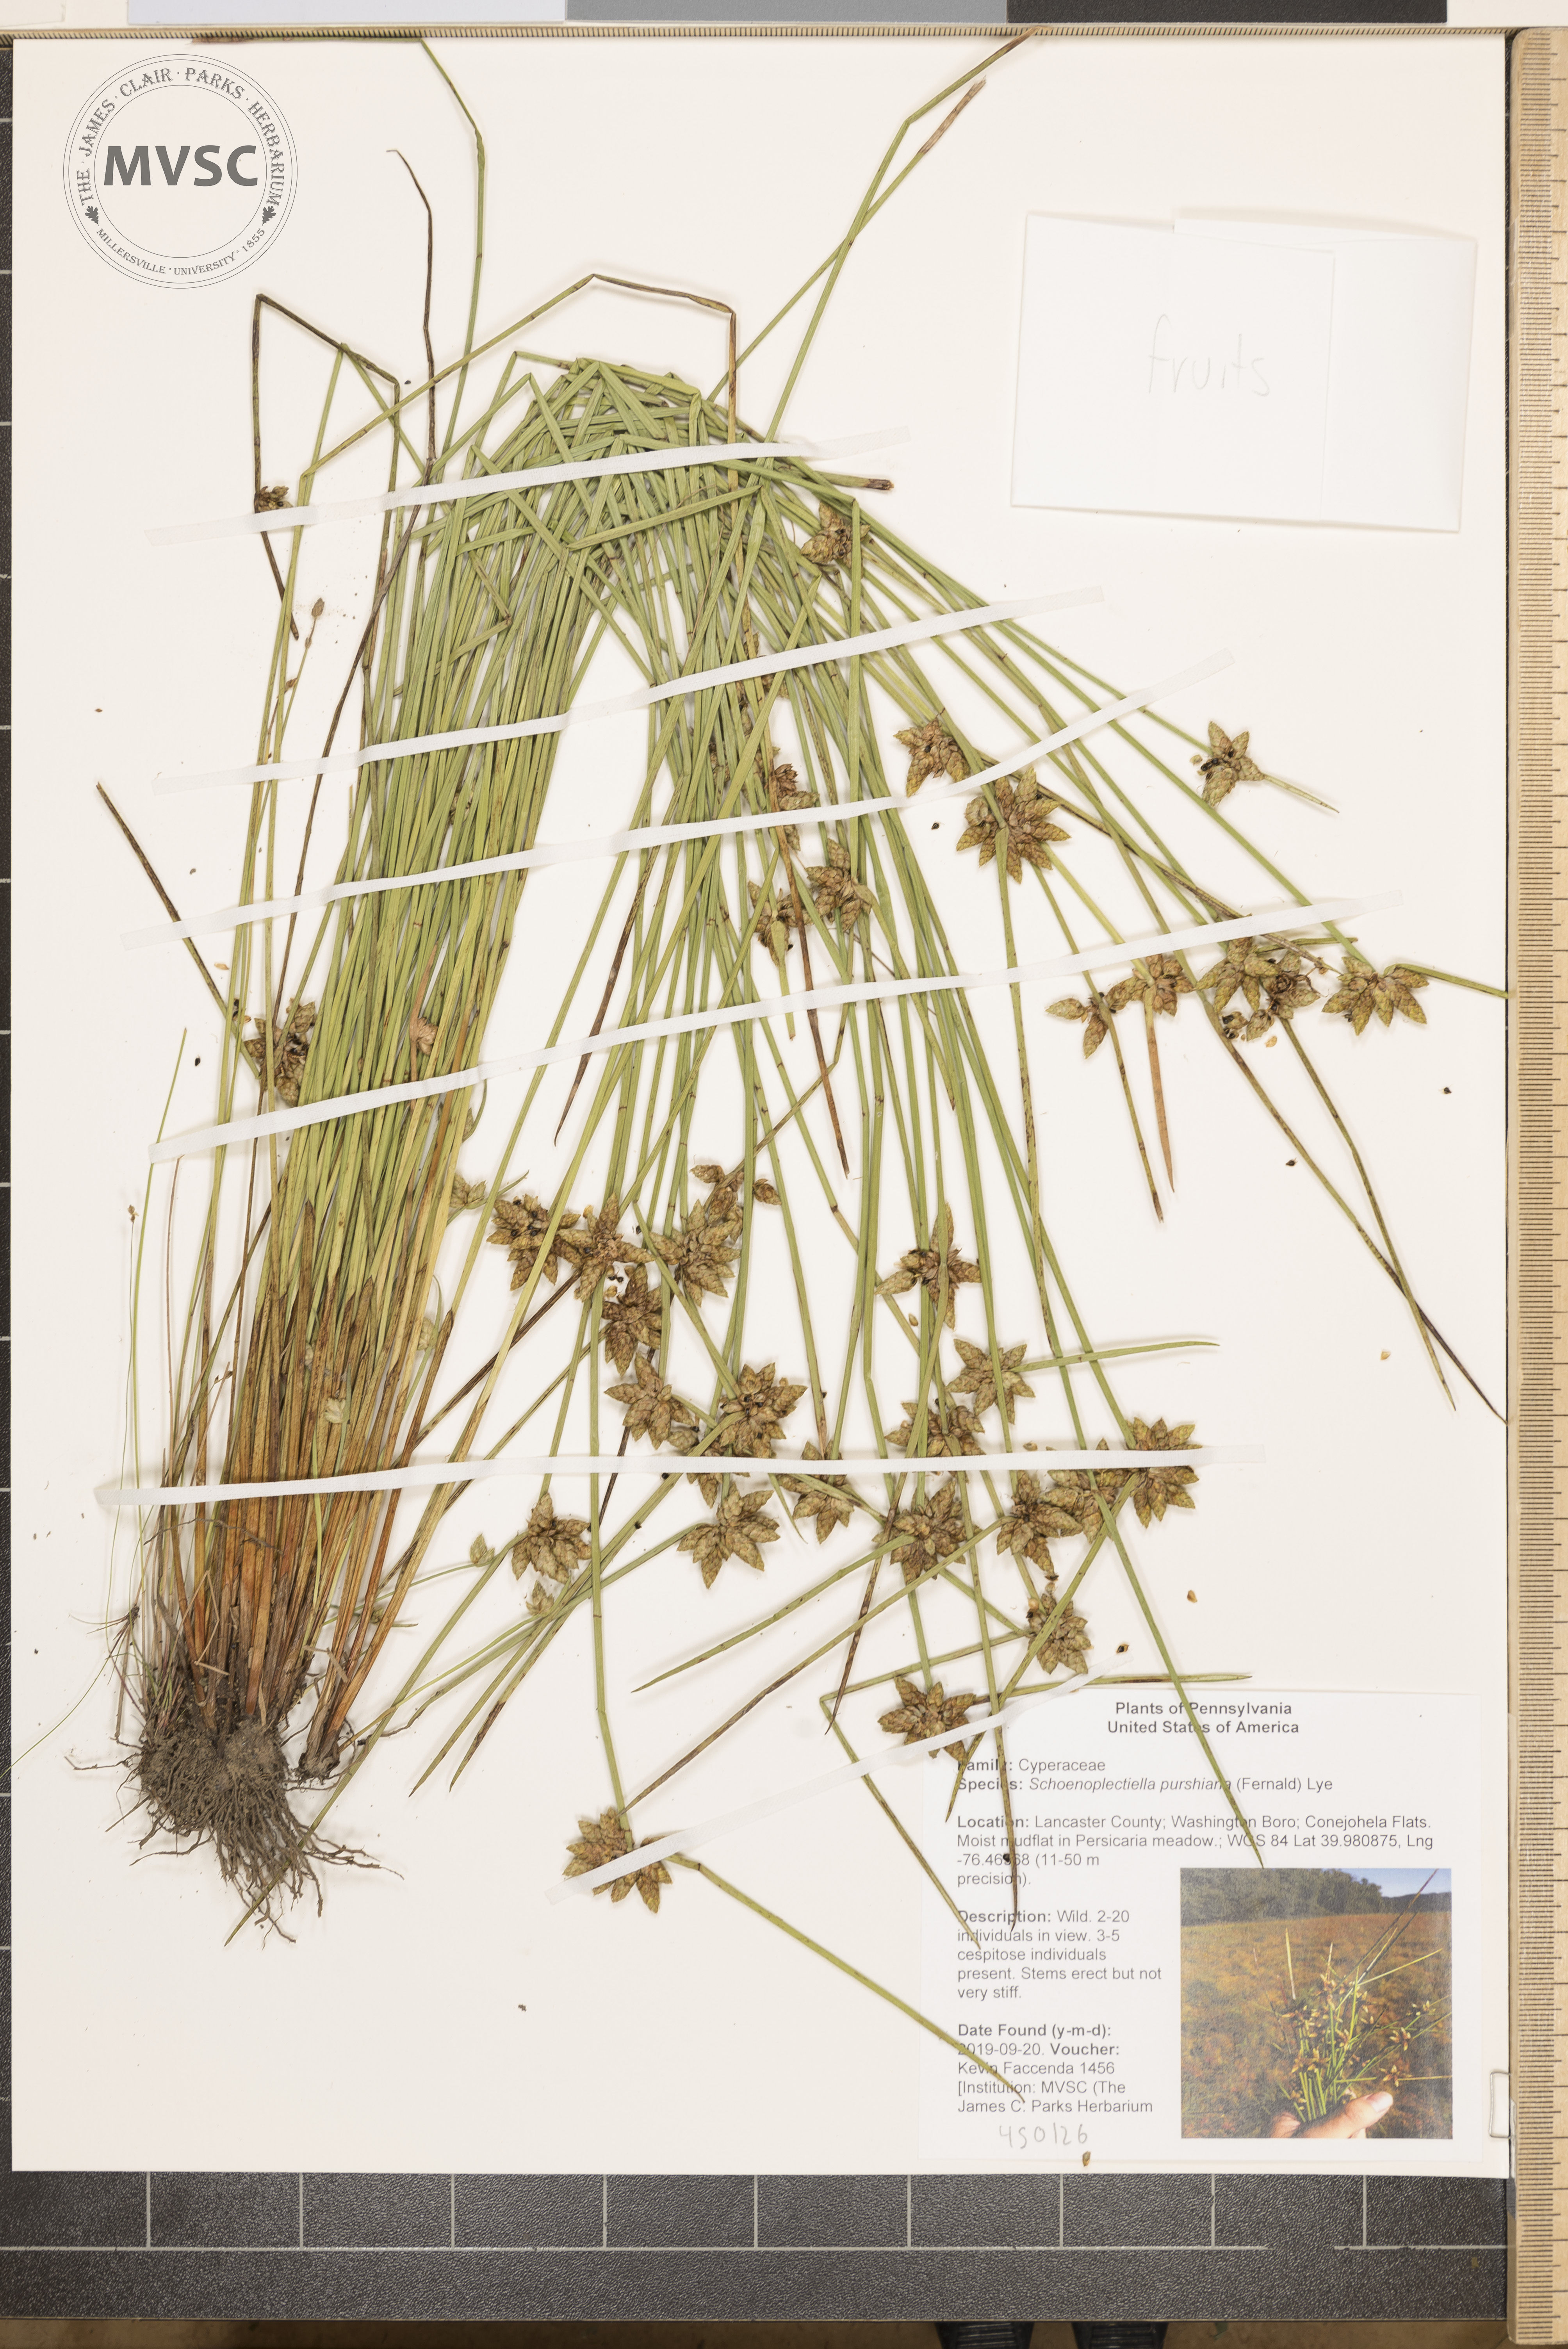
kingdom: Plantae
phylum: Tracheophyta
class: Liliopsida
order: Poales
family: Cyperaceae
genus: Schoenoplectiella
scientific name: Schoenoplectiella purshiana
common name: Weak-stalked bulrush
